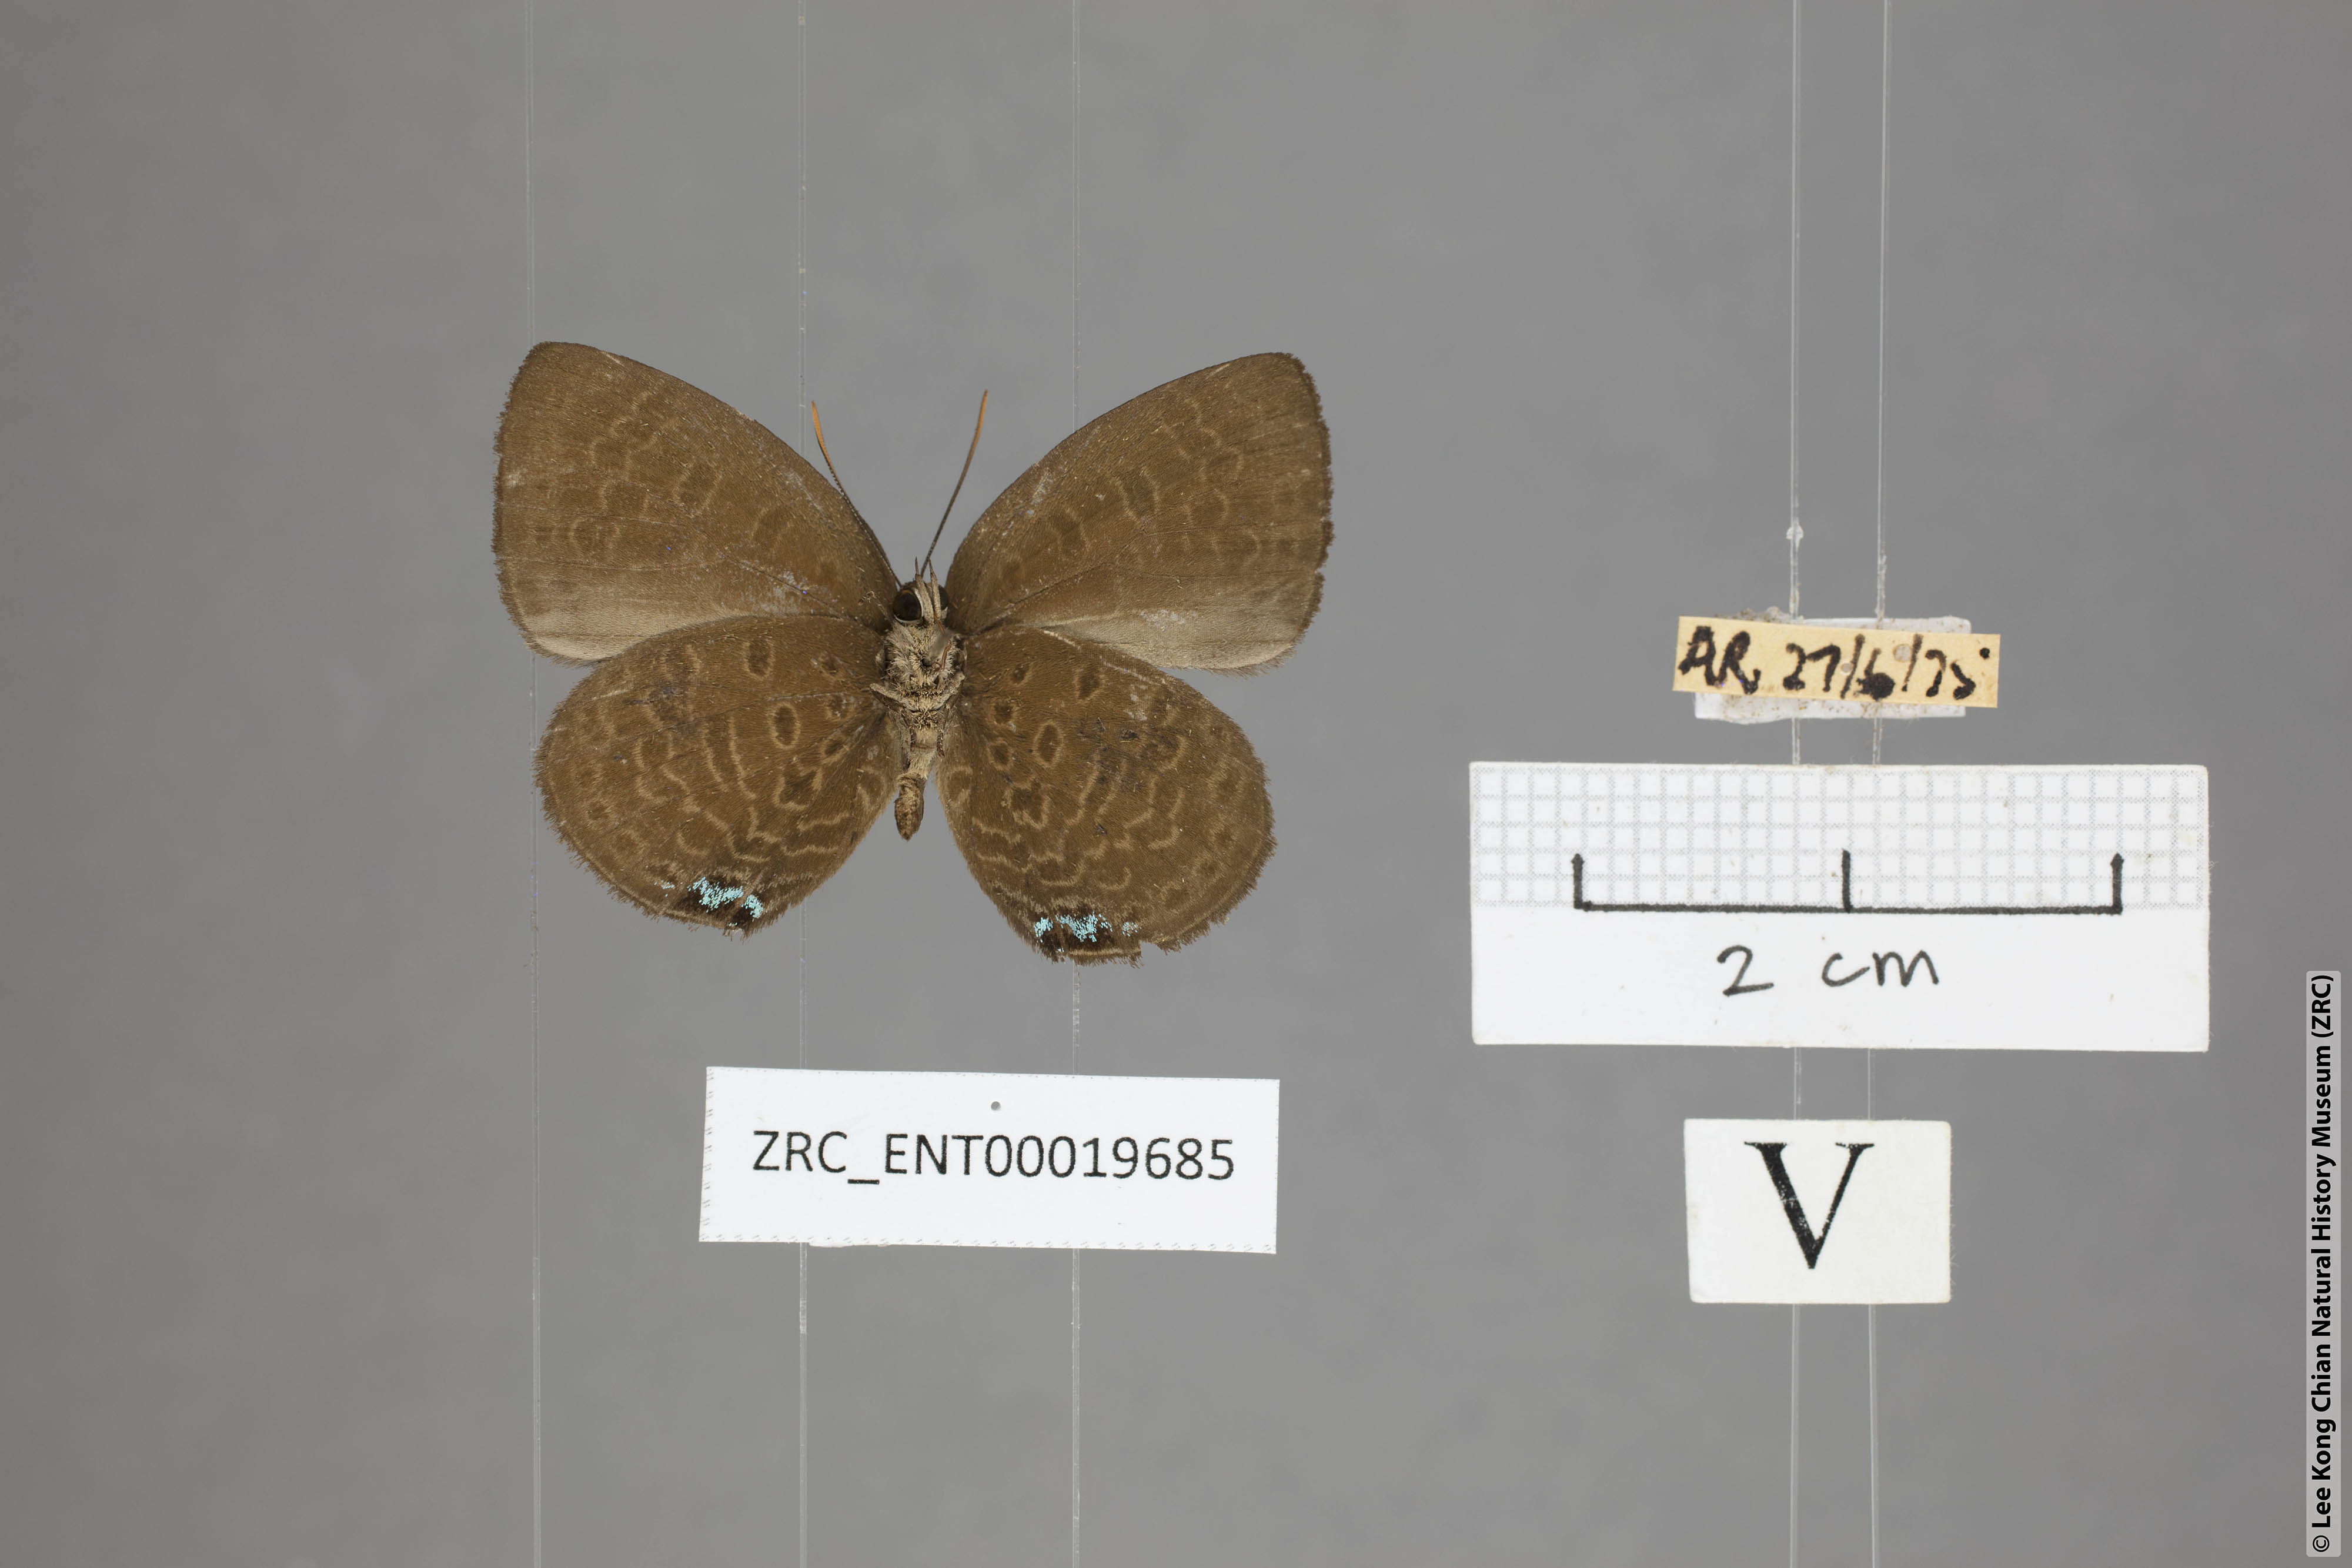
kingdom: Animalia
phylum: Arthropoda
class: Insecta
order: Lepidoptera
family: Lycaenidae
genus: Arhopala
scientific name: Arhopala moorei
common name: Moore's oakblue
